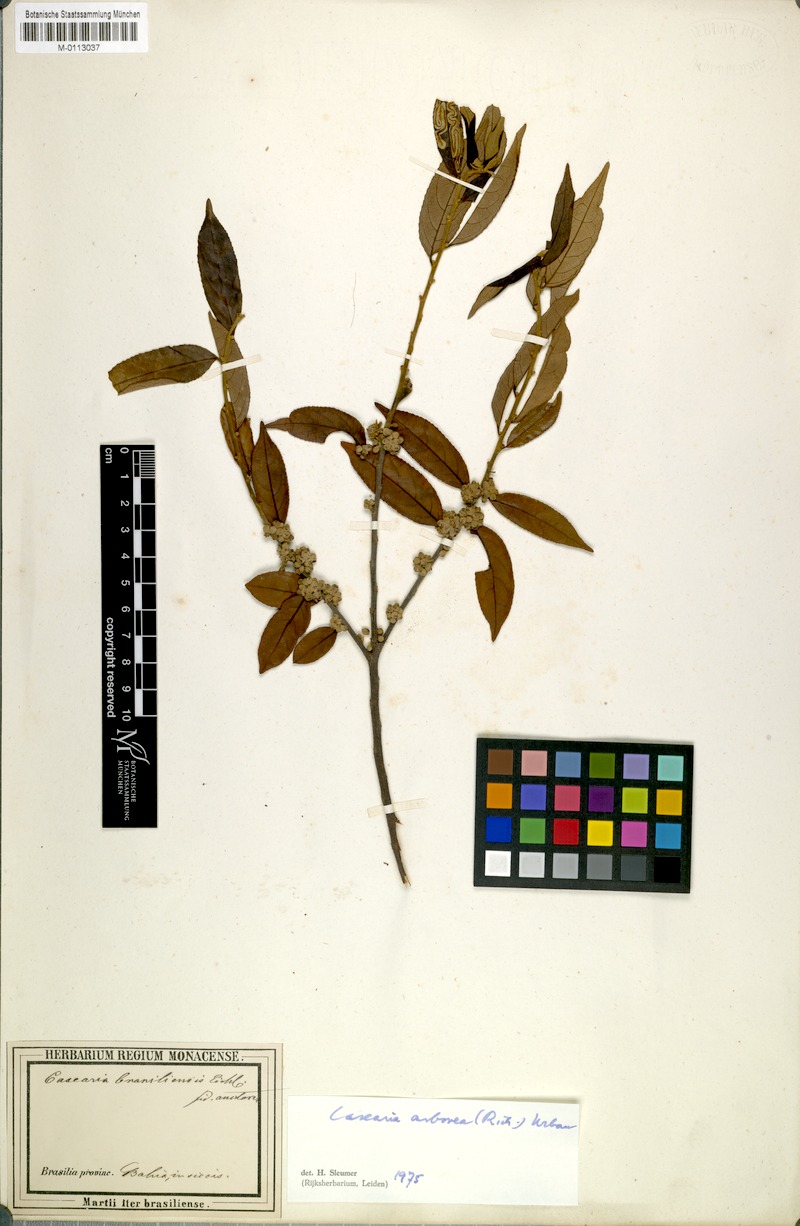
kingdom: Plantae
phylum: Tracheophyta
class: Magnoliopsida
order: Malpighiales
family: Salicaceae
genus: Casearia
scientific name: Casearia arborea
